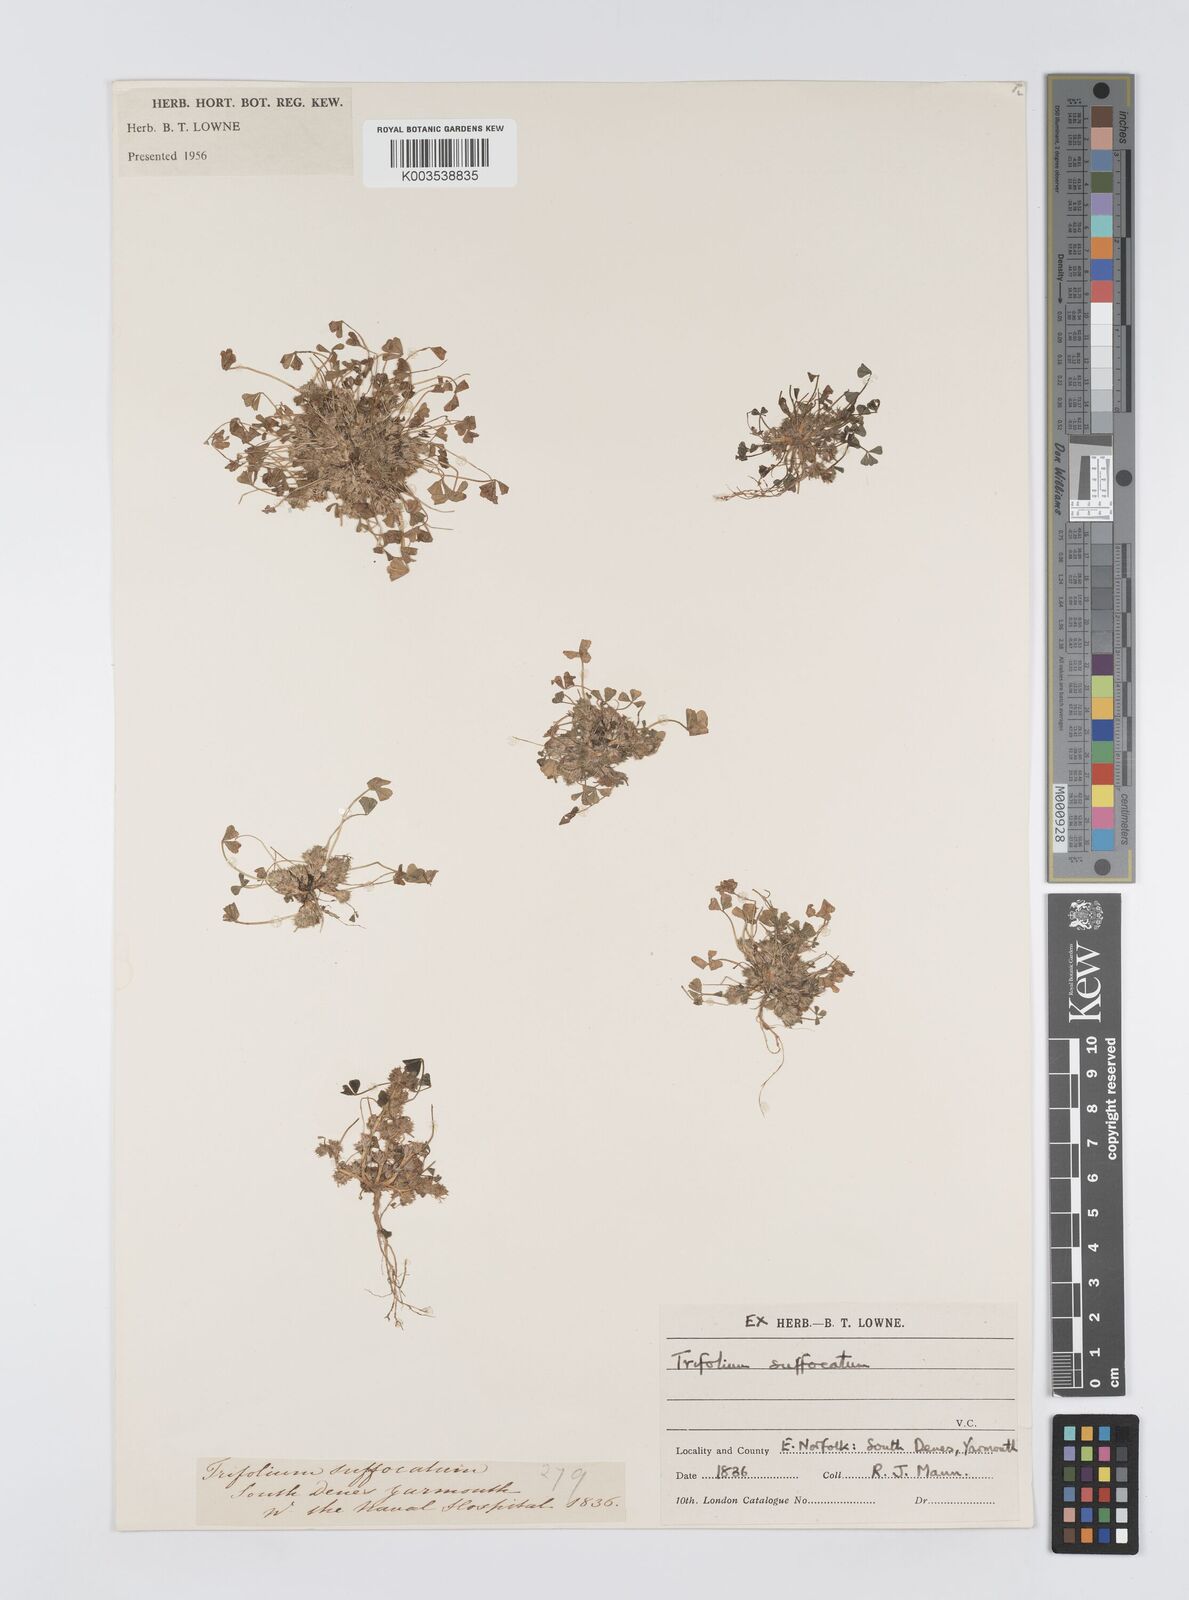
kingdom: Plantae
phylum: Tracheophyta
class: Magnoliopsida
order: Fabales
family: Fabaceae
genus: Trifolium
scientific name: Trifolium suffocatum
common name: Suffocated clover
